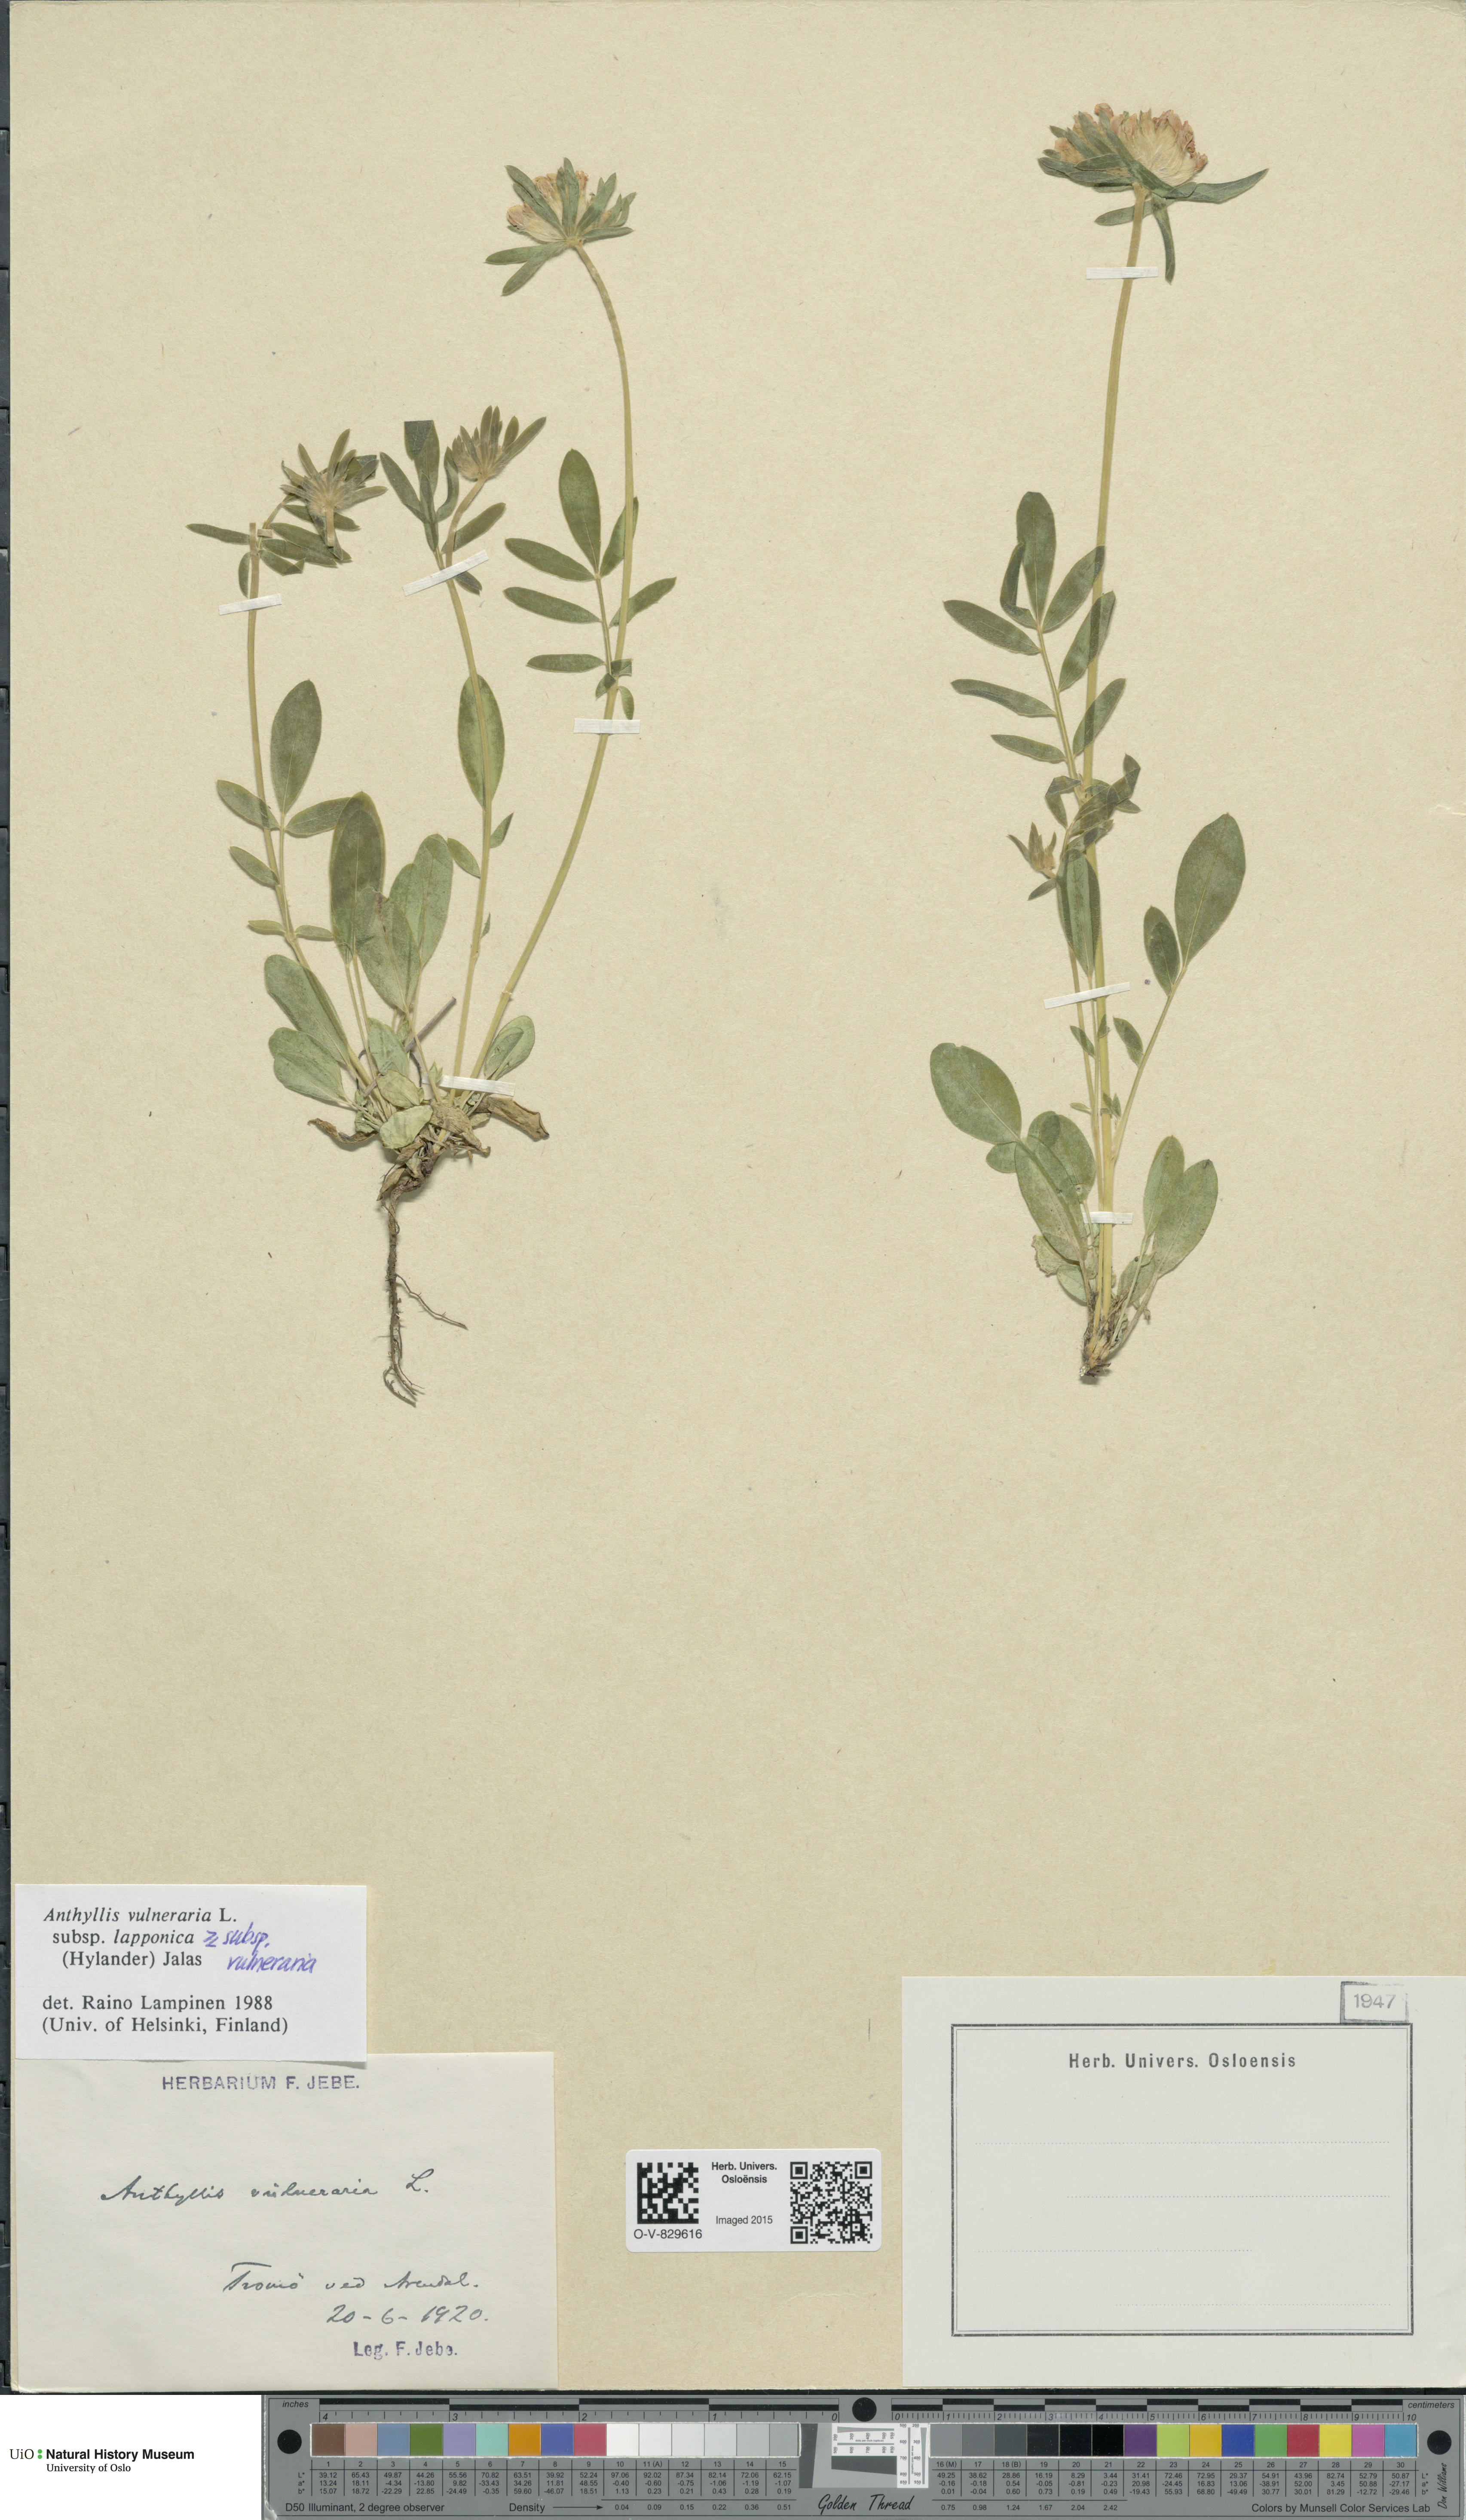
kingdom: Plantae
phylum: Tracheophyta
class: Magnoliopsida
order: Fabales
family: Fabaceae
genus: Anthyllis
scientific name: Anthyllis
